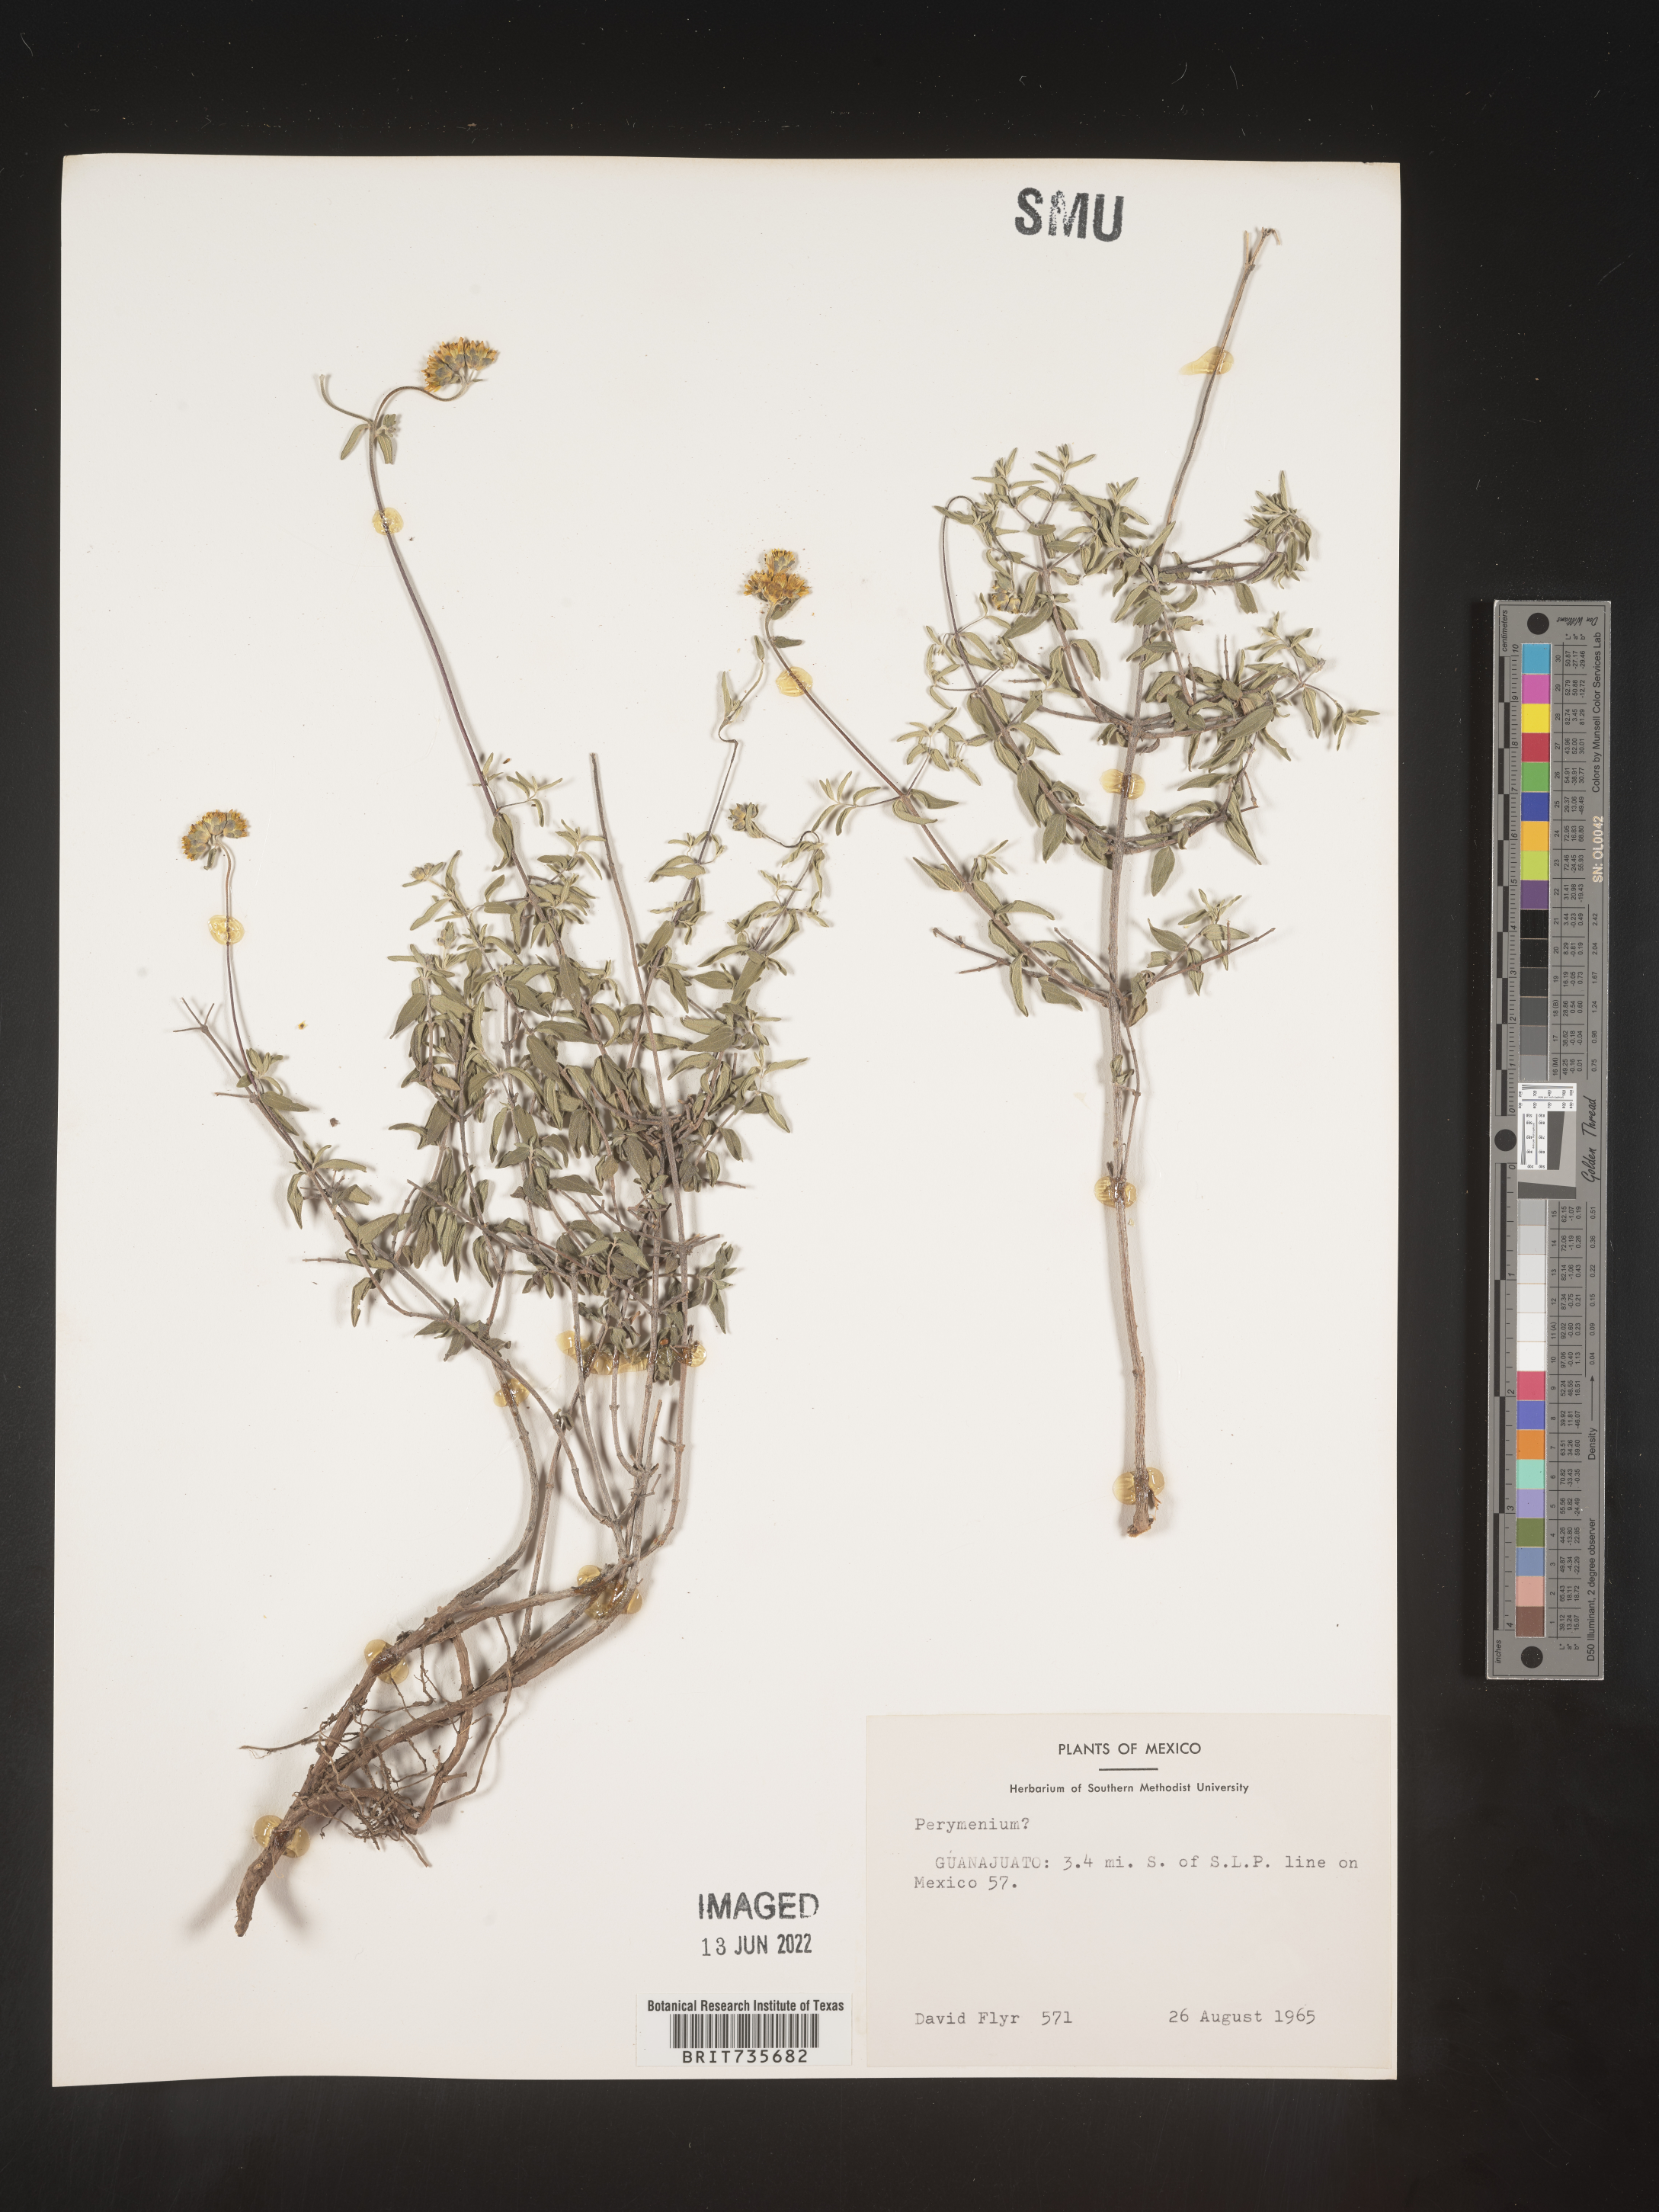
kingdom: Plantae
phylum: Tracheophyta
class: Magnoliopsida
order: Asterales
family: Asteraceae
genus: Perymenium
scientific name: Perymenium
